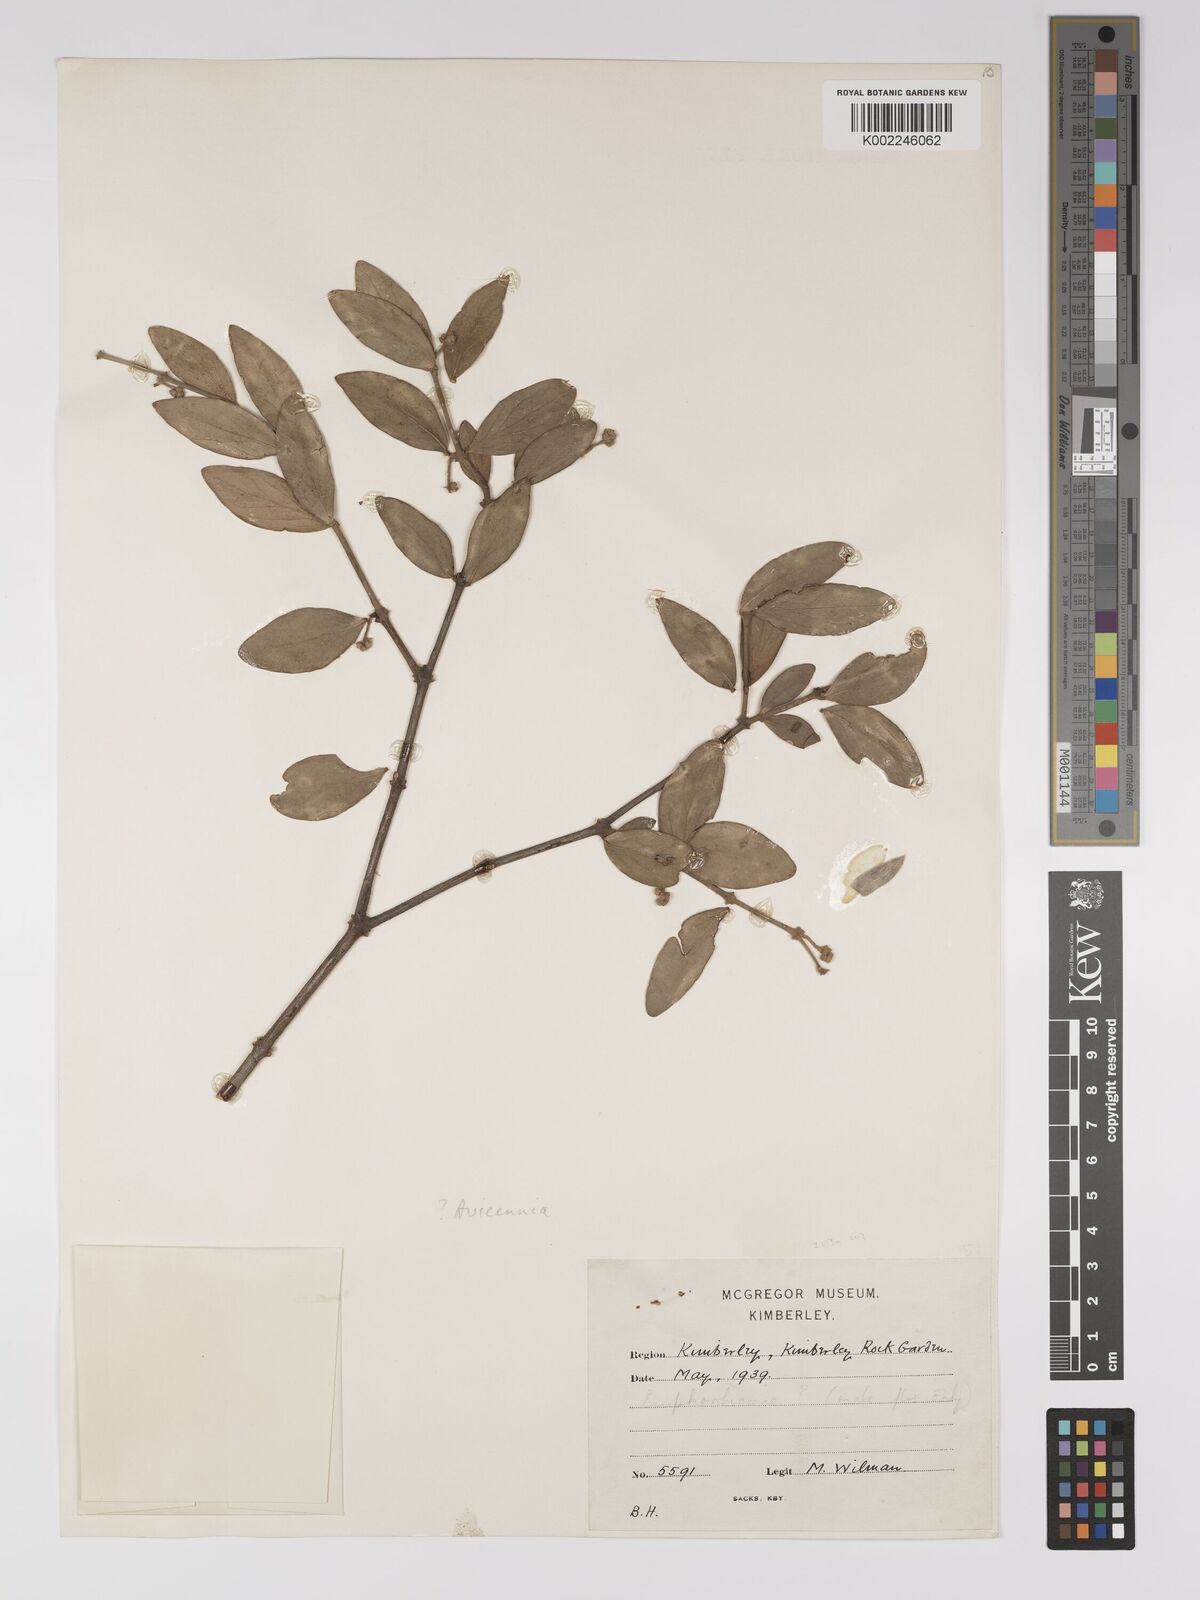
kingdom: Plantae
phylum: Tracheophyta
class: Magnoliopsida
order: Malpighiales
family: Euphorbiaceae
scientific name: Euphorbiaceae
